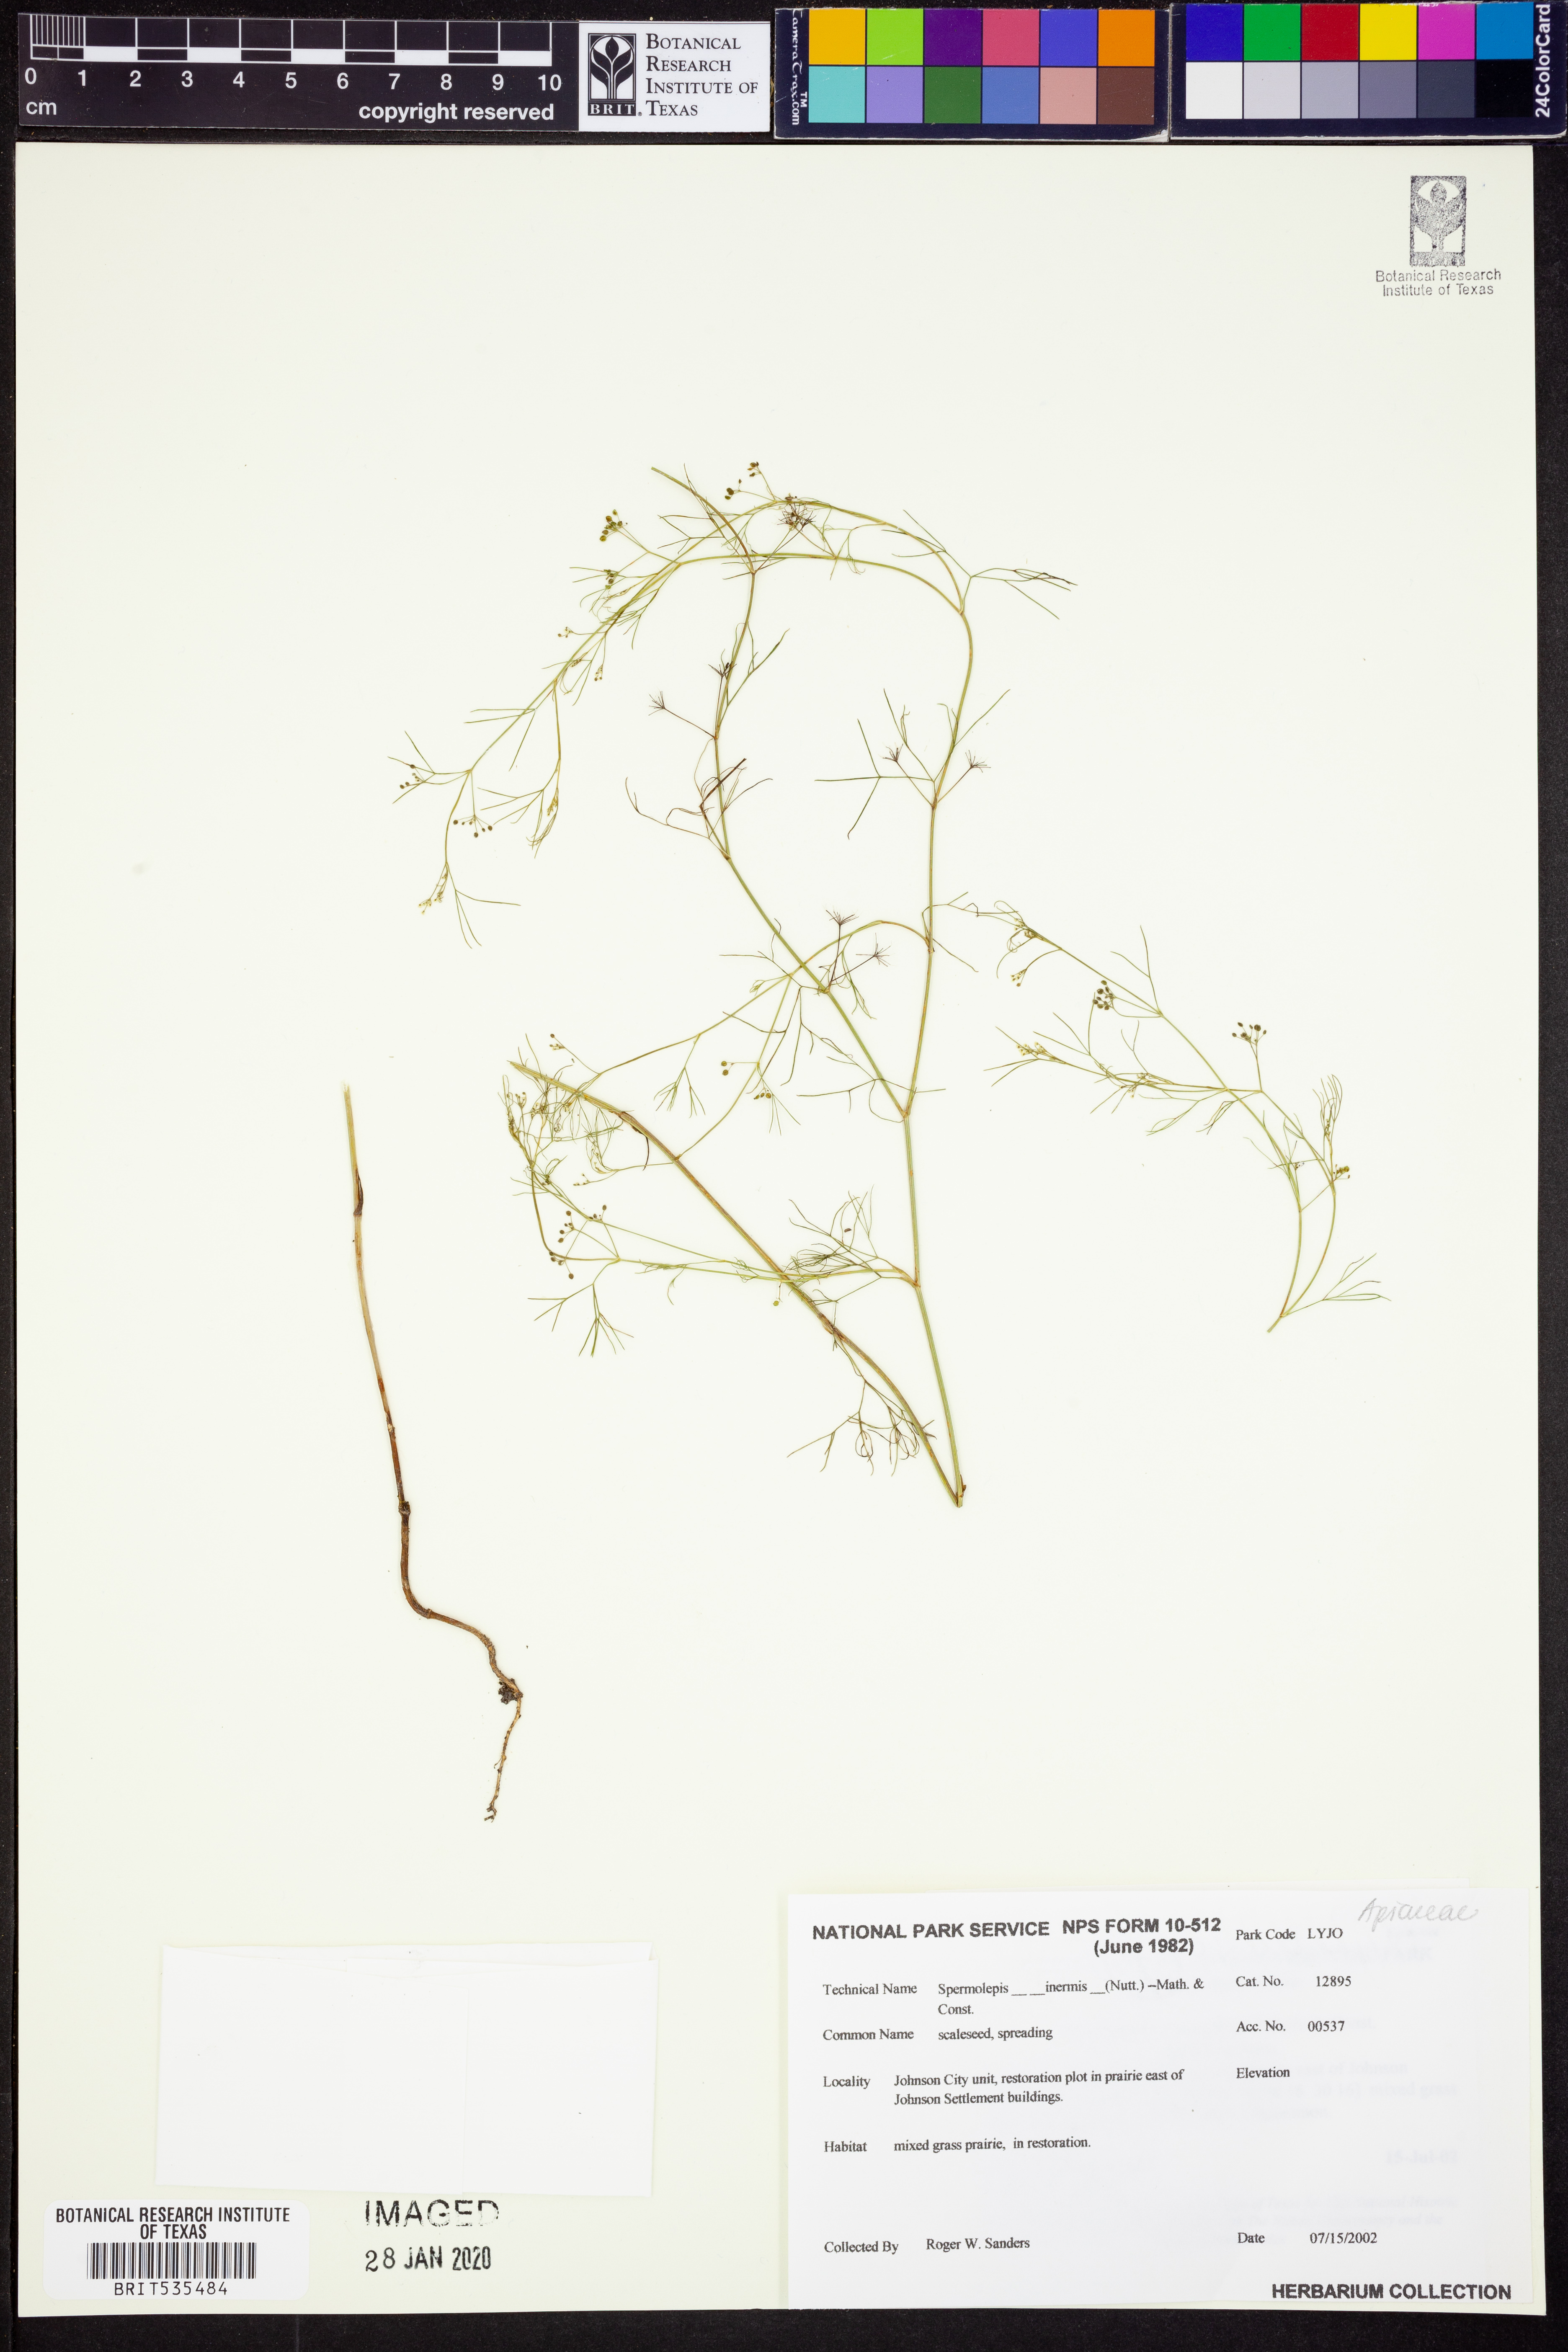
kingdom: Plantae
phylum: Tracheophyta
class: Magnoliopsida
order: Apiales
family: Apiaceae
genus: Spermolepis
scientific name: Spermolepis inermis
